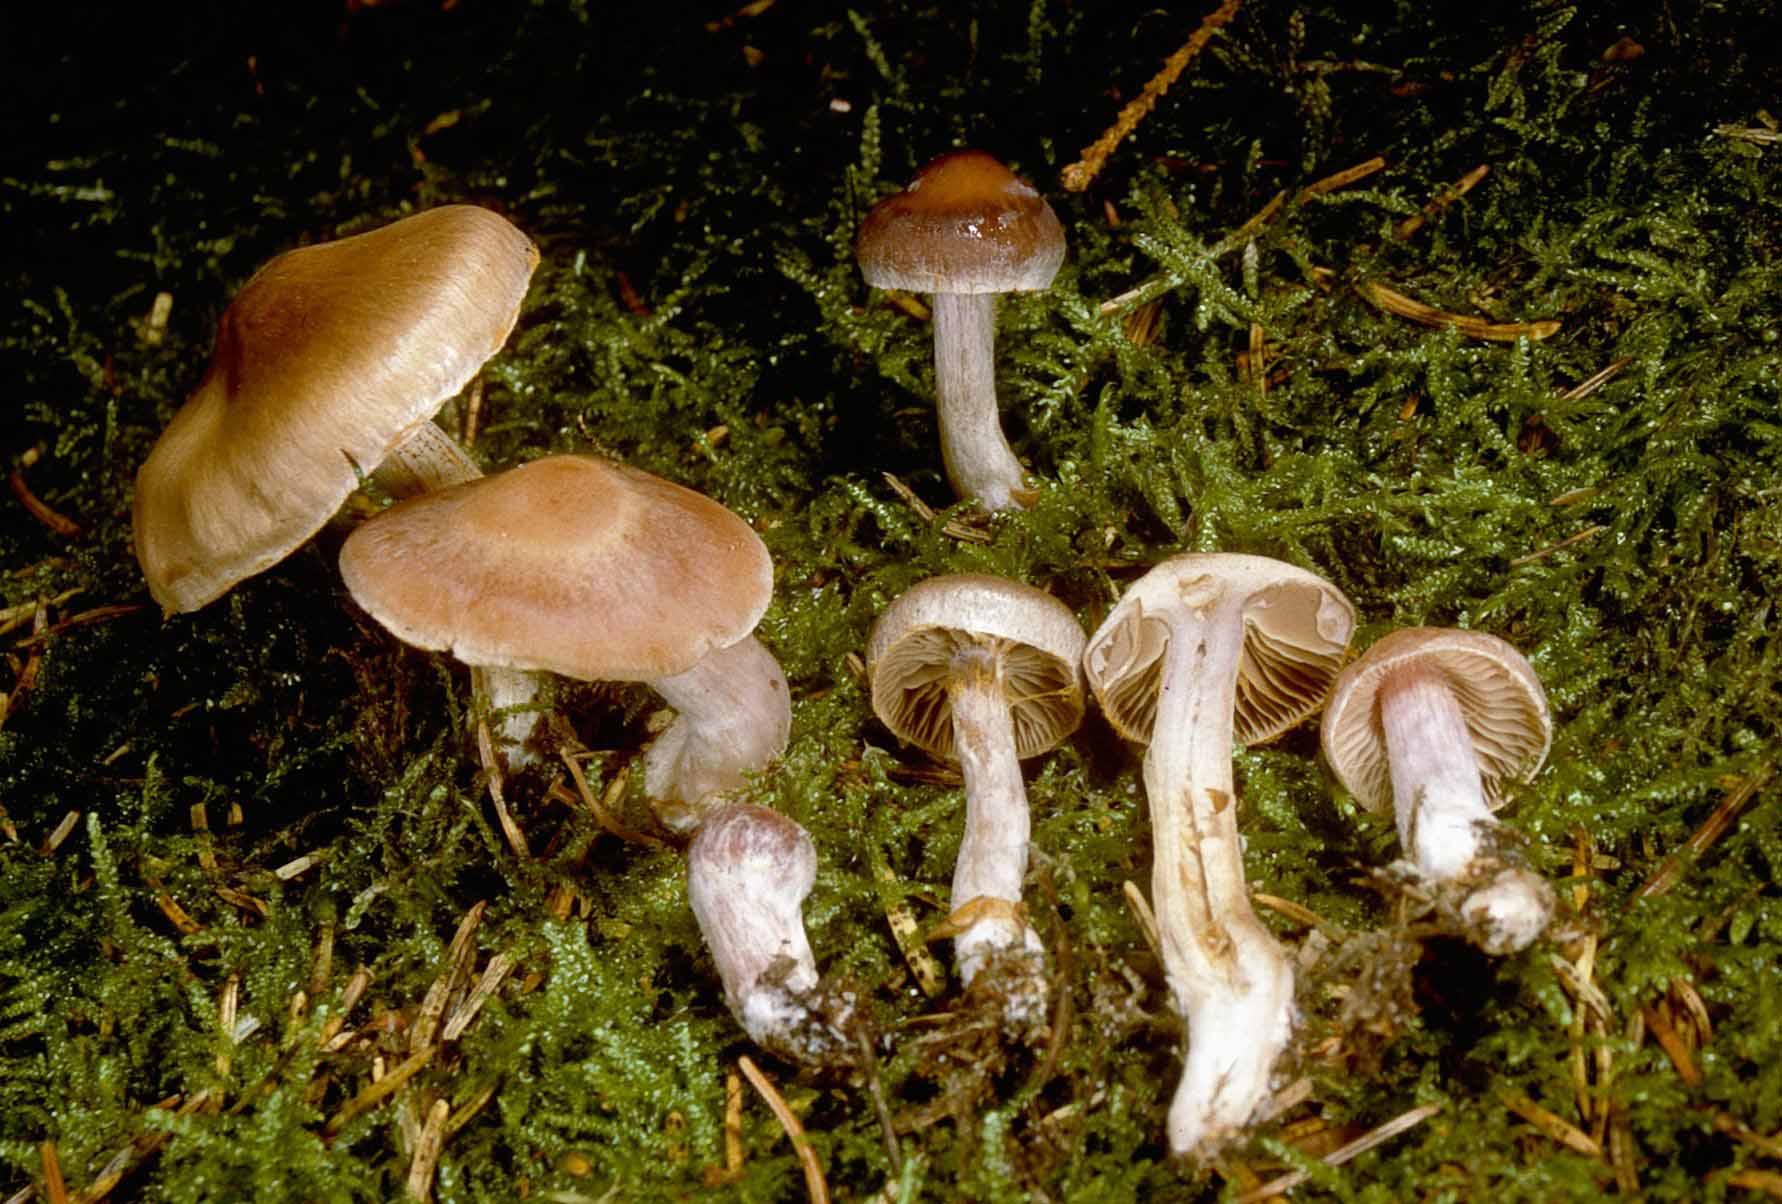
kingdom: Fungi
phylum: Basidiomycota
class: Agaricomycetes
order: Agaricales
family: Cortinariaceae
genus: Cortinarius
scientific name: Cortinarius kauffmanianus
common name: plantage-slørhat
